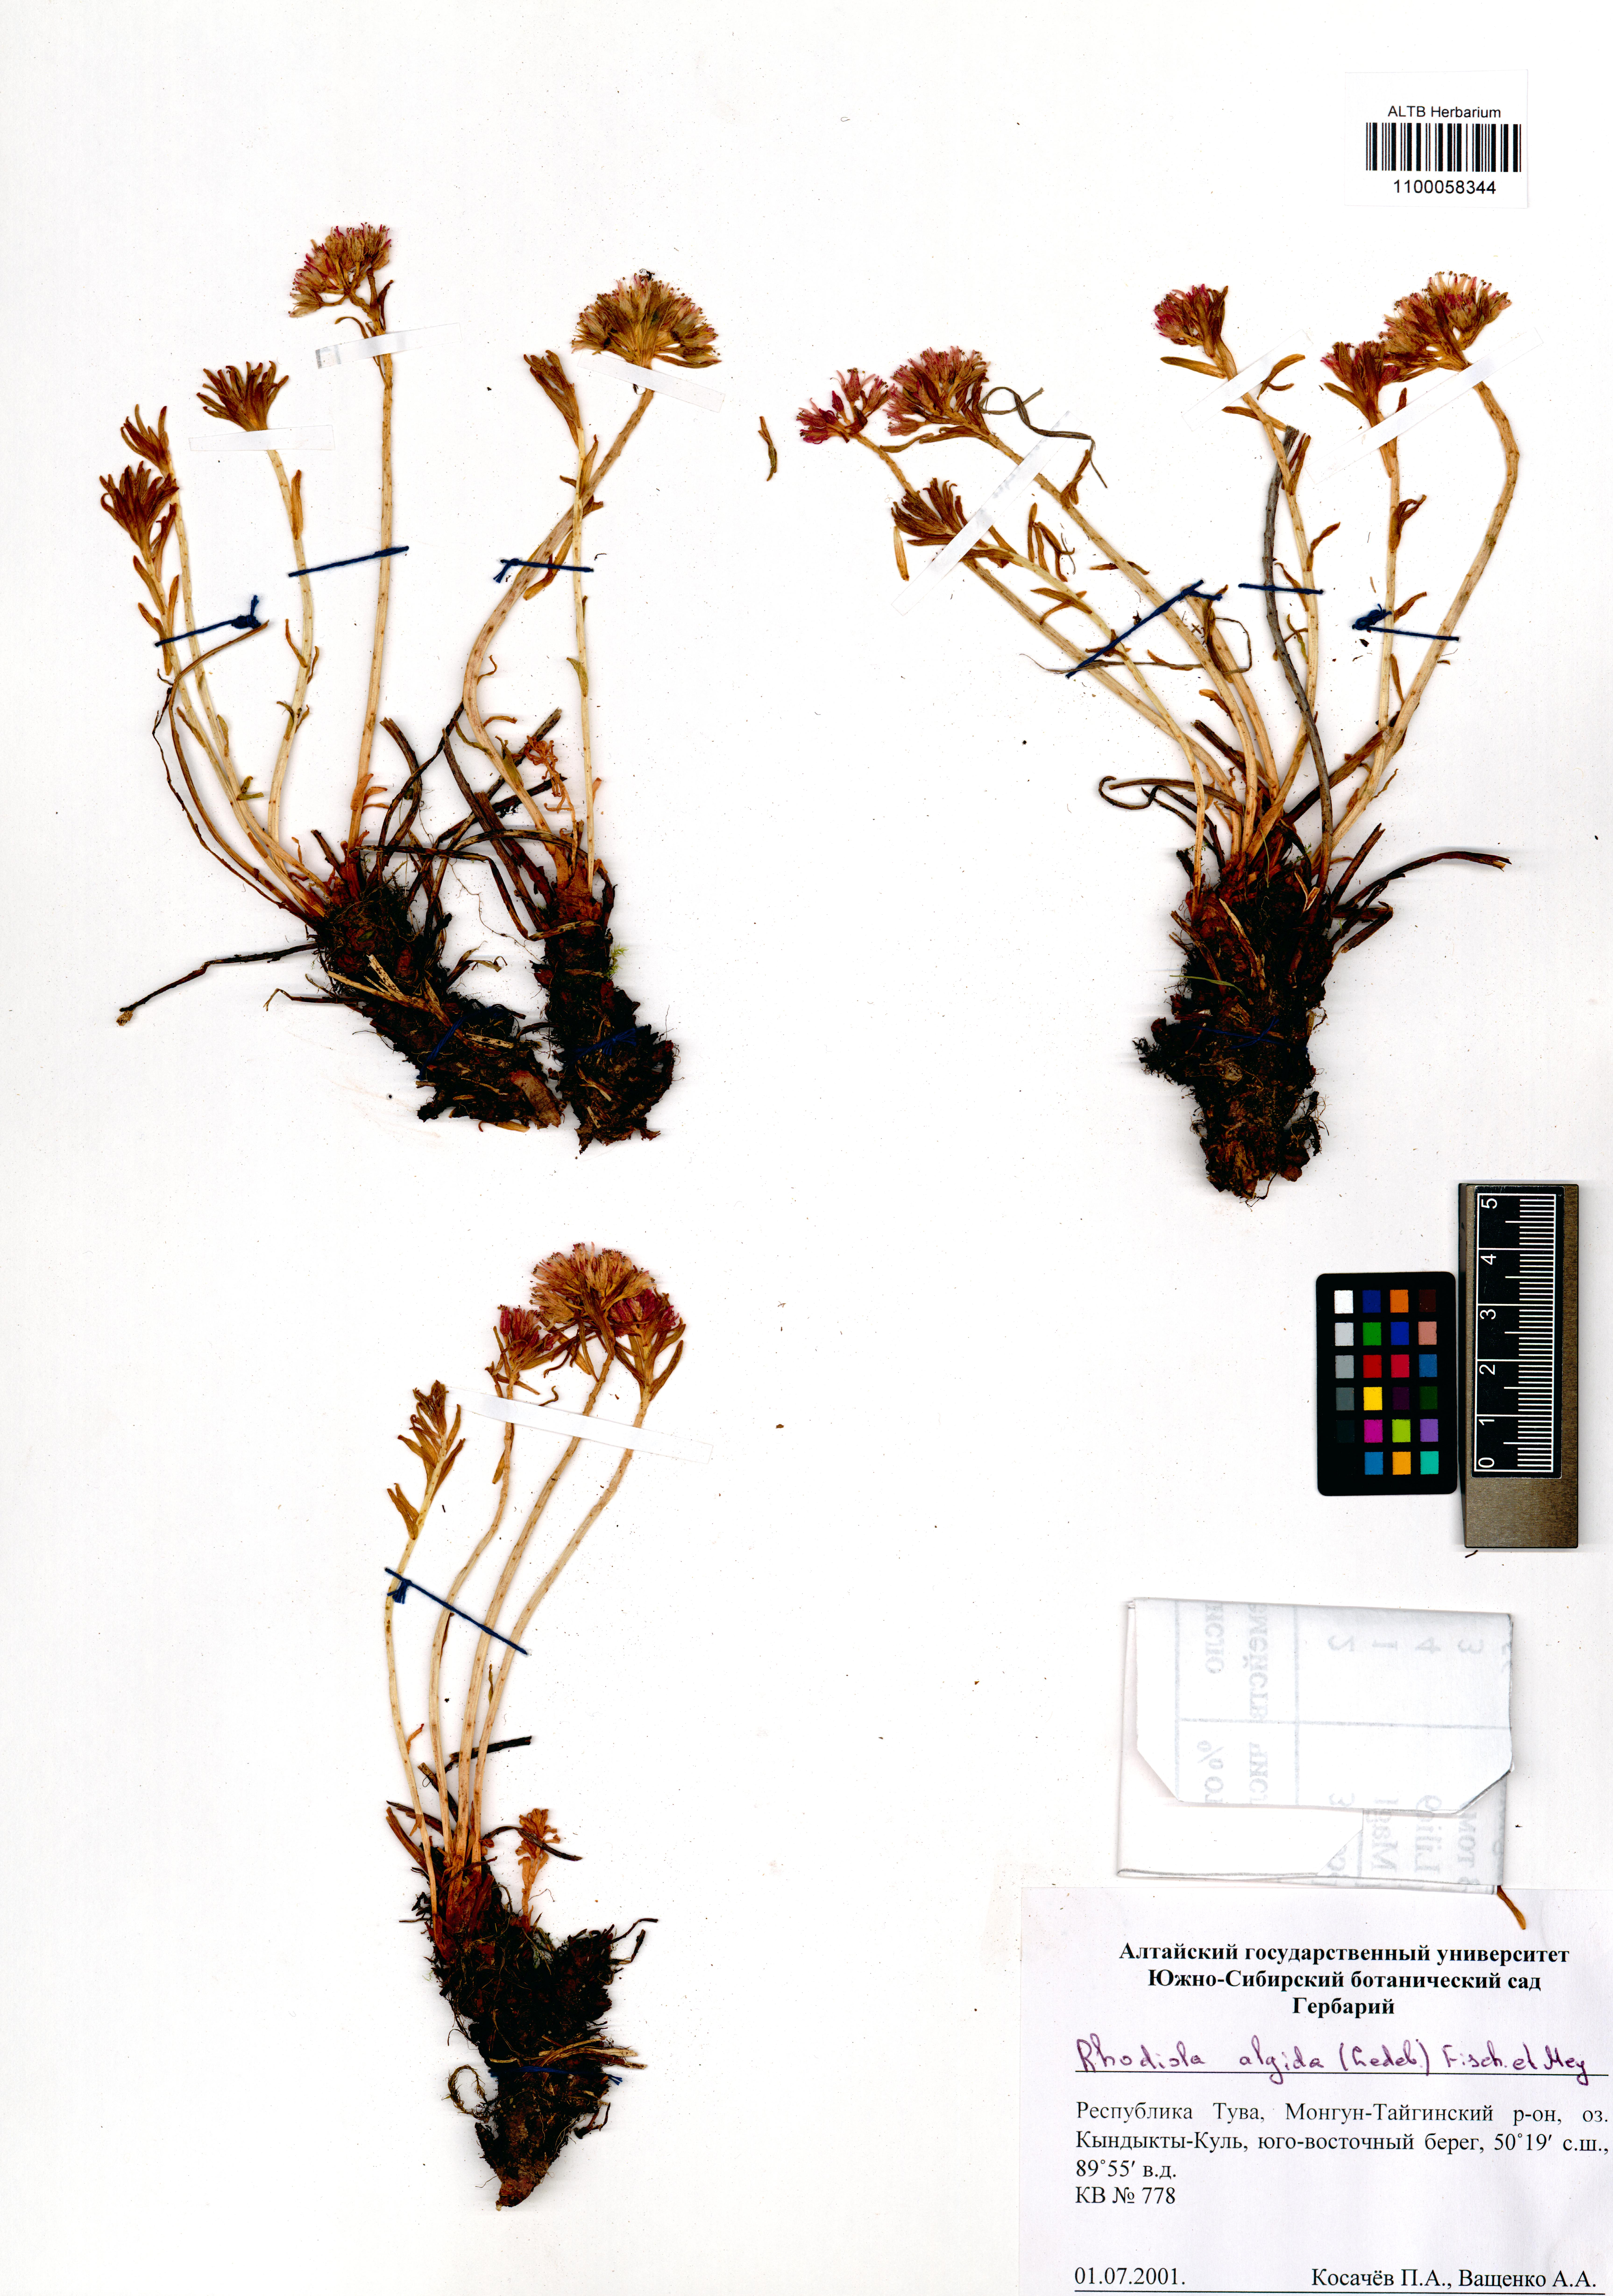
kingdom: Plantae
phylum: Tracheophyta
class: Magnoliopsida
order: Saxifragales
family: Crassulaceae
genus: Rhodiola
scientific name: Rhodiola algida
